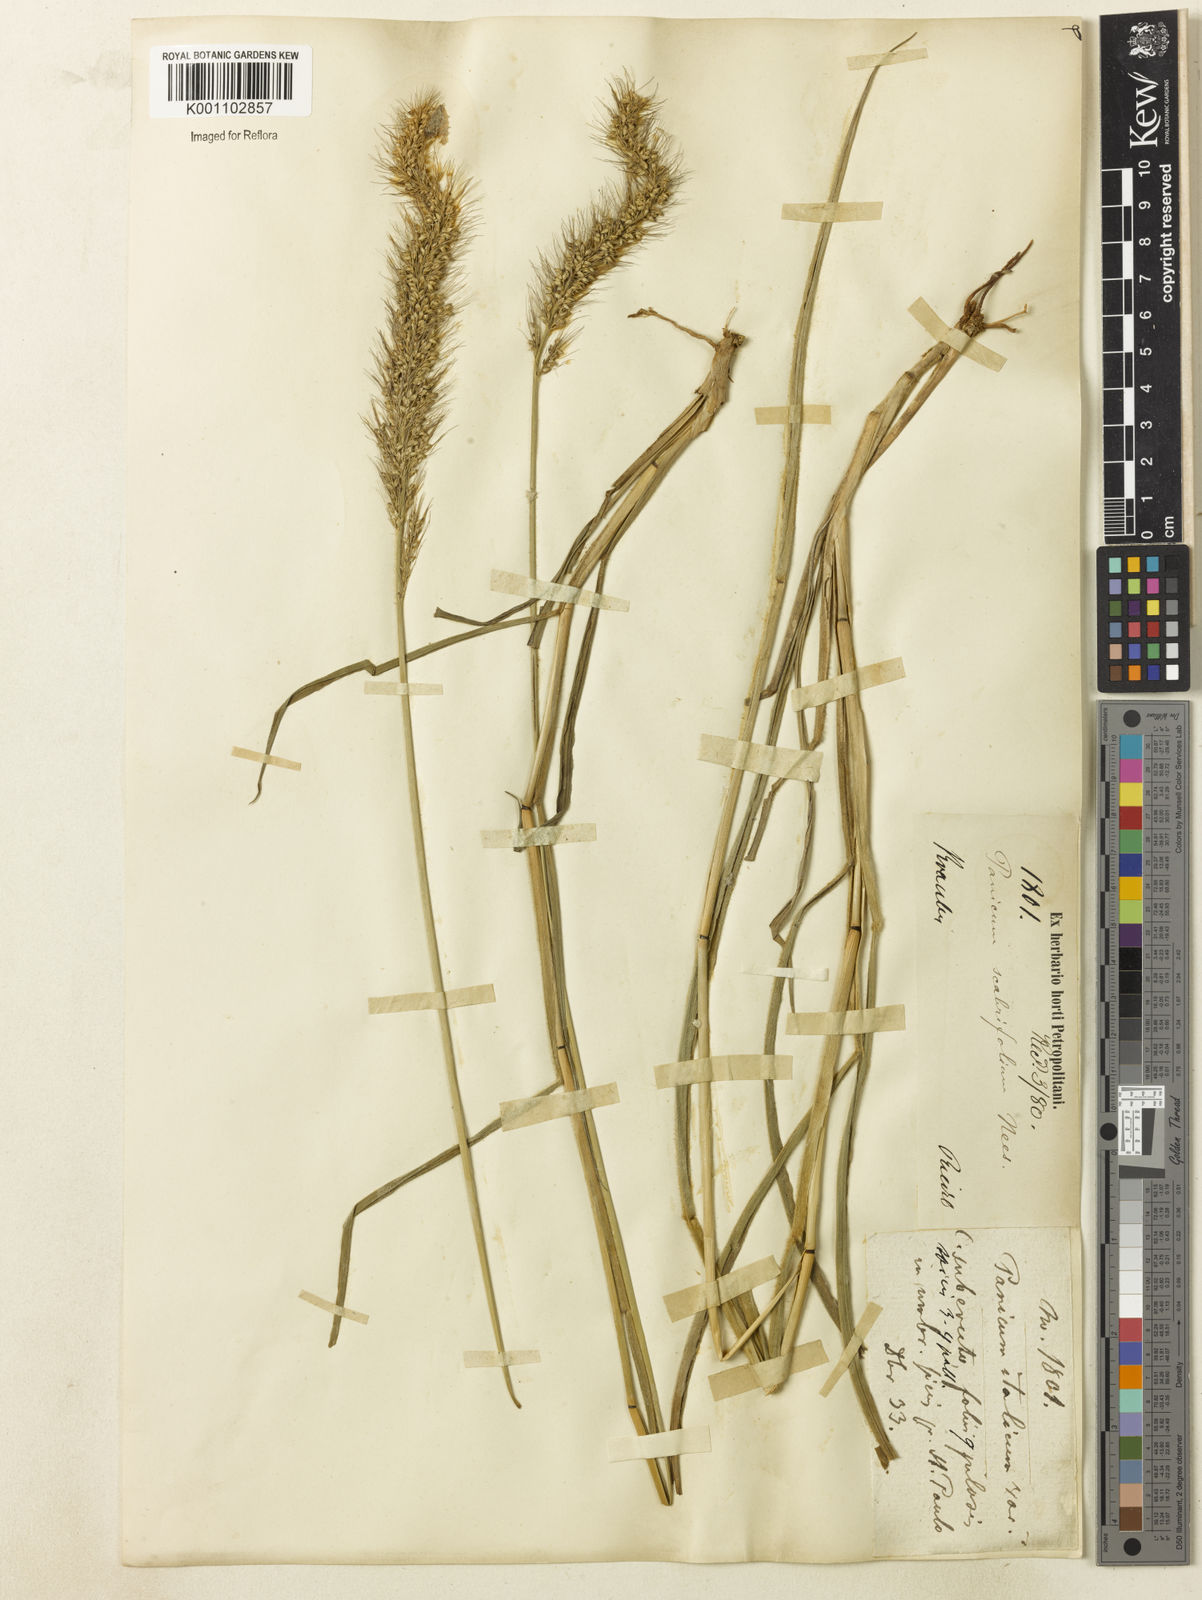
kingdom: Plantae
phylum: Tracheophyta
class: Liliopsida
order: Poales
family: Poaceae
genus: Setaria
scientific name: Setaria scabrifolia
